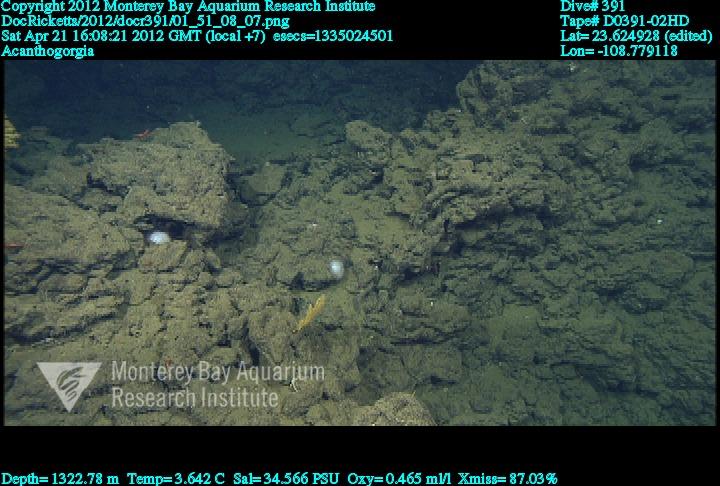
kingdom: Animalia
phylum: Cnidaria
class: Anthozoa
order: Malacalcyonacea
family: Paramuriceidae
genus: Acanthogorgia
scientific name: Acanthogorgia
